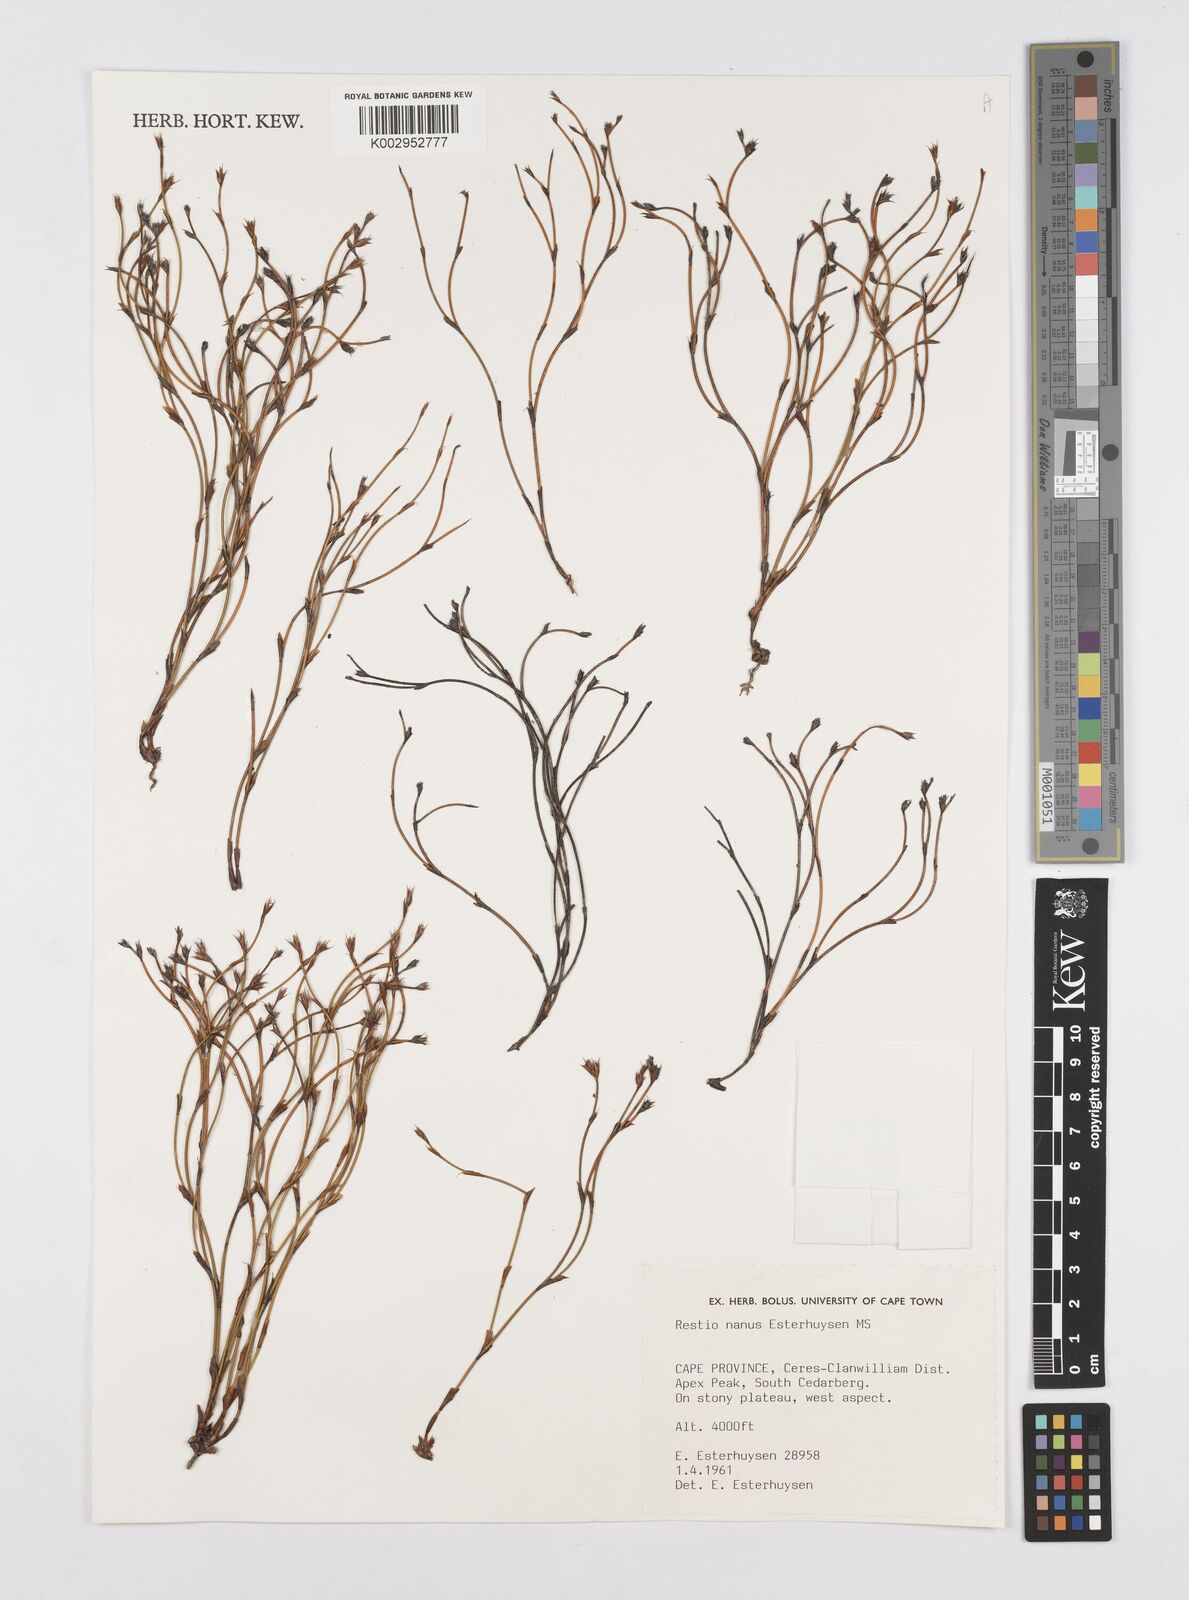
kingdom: Plantae
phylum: Tracheophyta
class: Liliopsida
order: Poales
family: Restionaceae
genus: Restio
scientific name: Restio nanus
